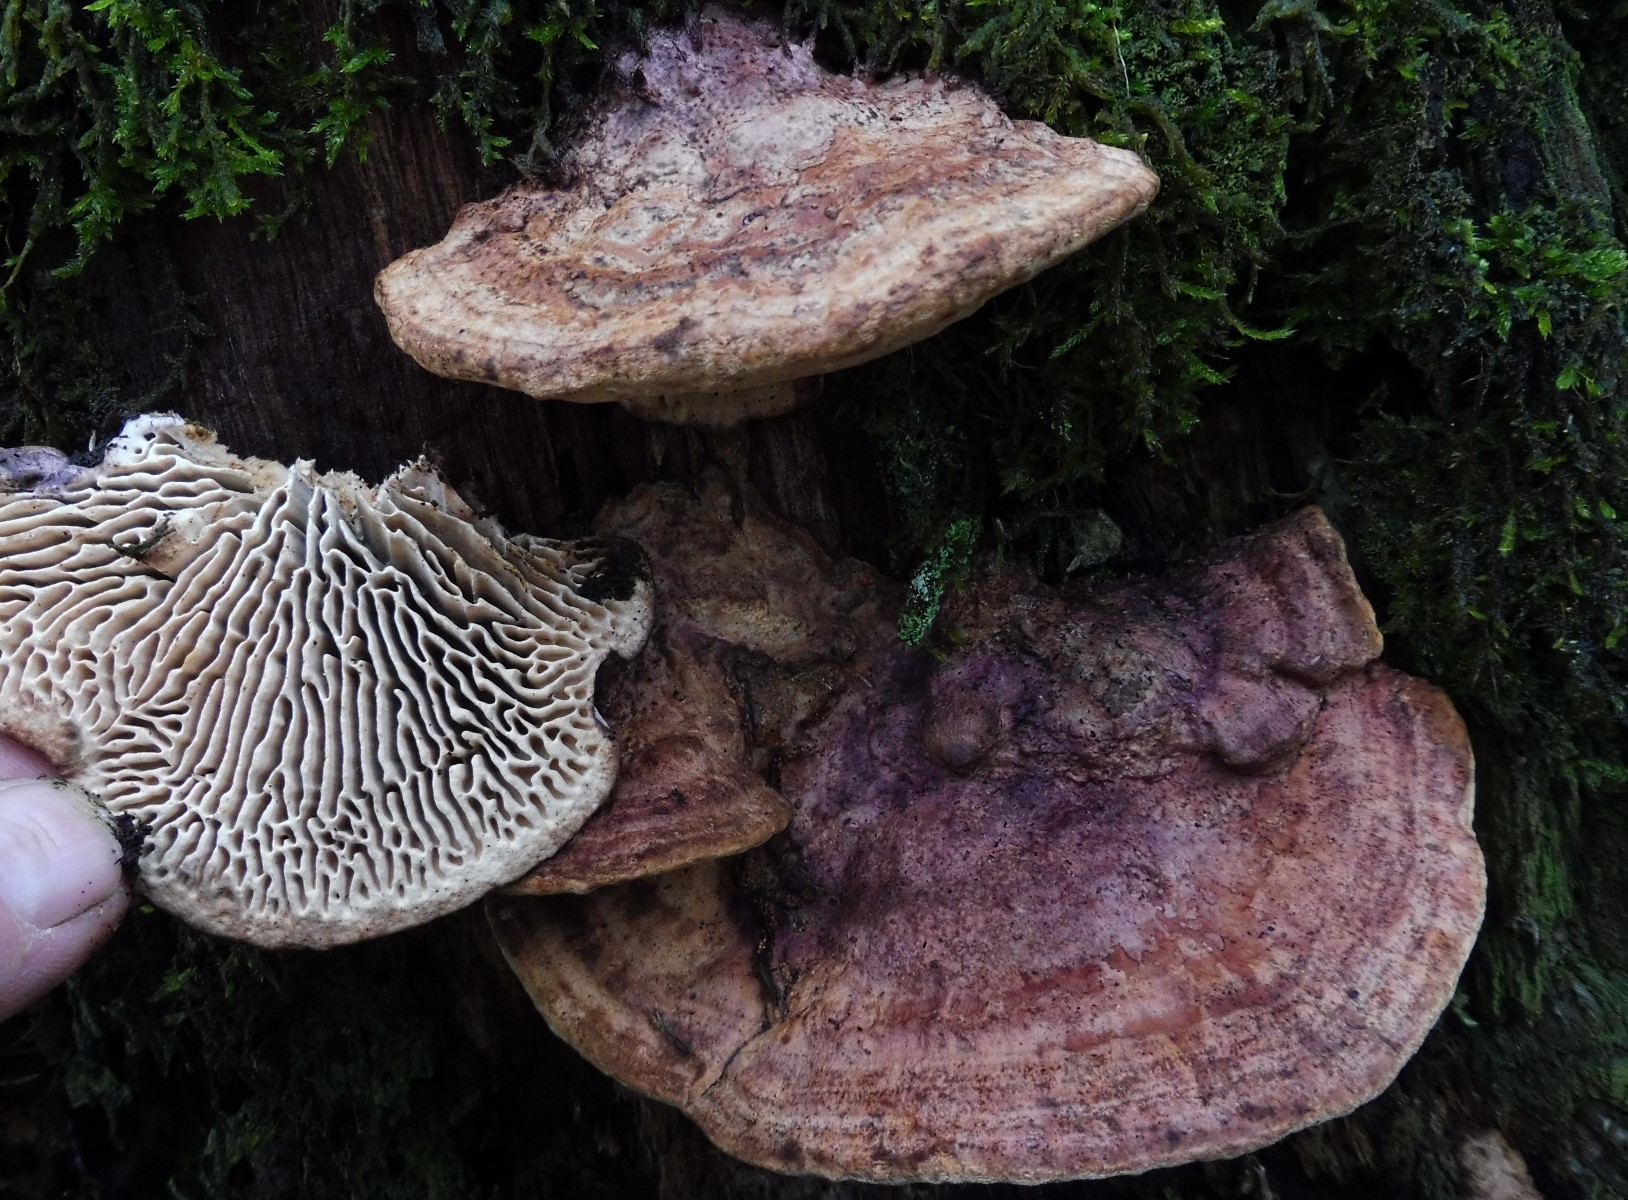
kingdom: Fungi
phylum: Basidiomycota
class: Agaricomycetes
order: Polyporales
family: Fomitopsidaceae
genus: Daedalea
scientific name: Daedalea quercina
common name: ege-labyrintsvamp
